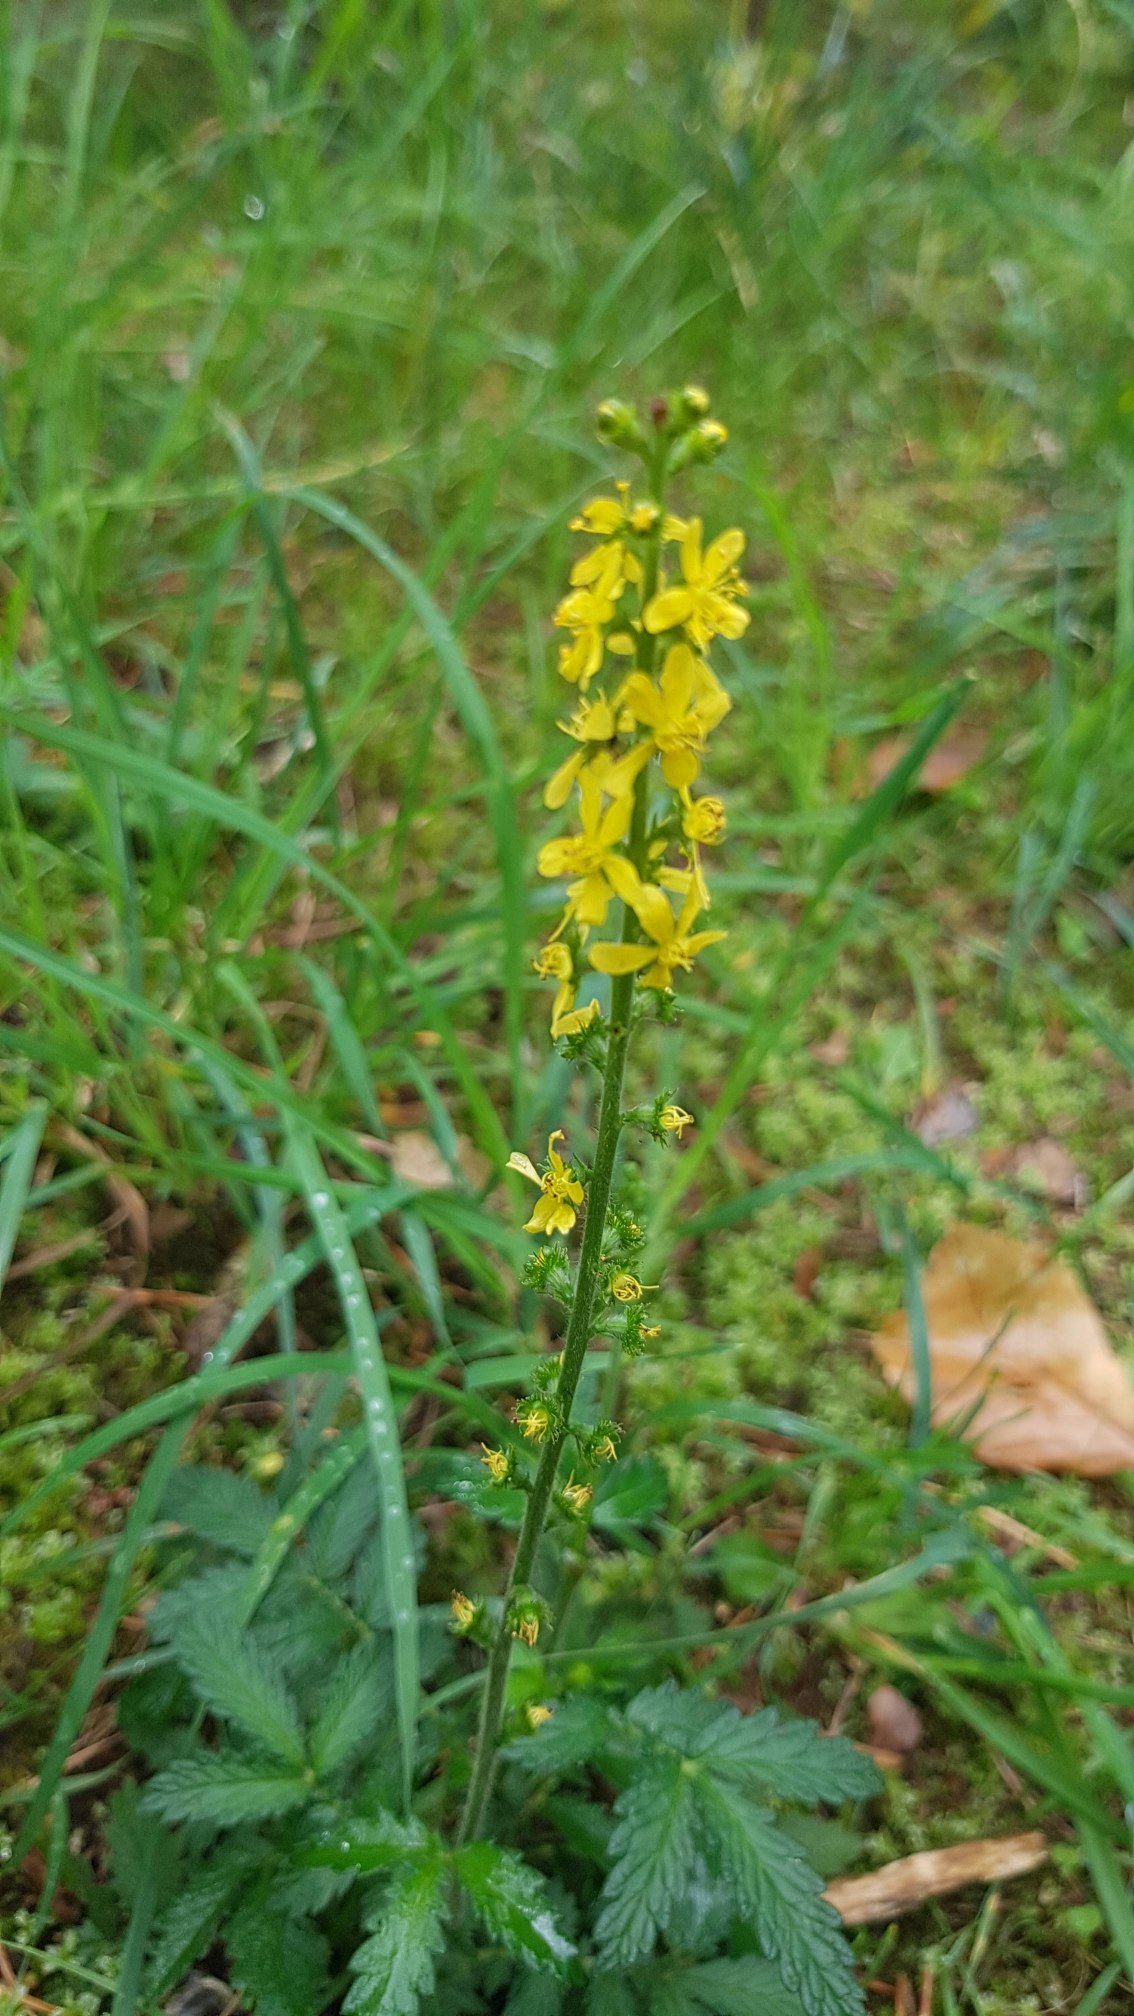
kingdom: Plantae
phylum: Tracheophyta
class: Magnoliopsida
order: Rosales
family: Rosaceae
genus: Agrimonia
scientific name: Agrimonia eupatoria
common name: Almindelig agermåne
